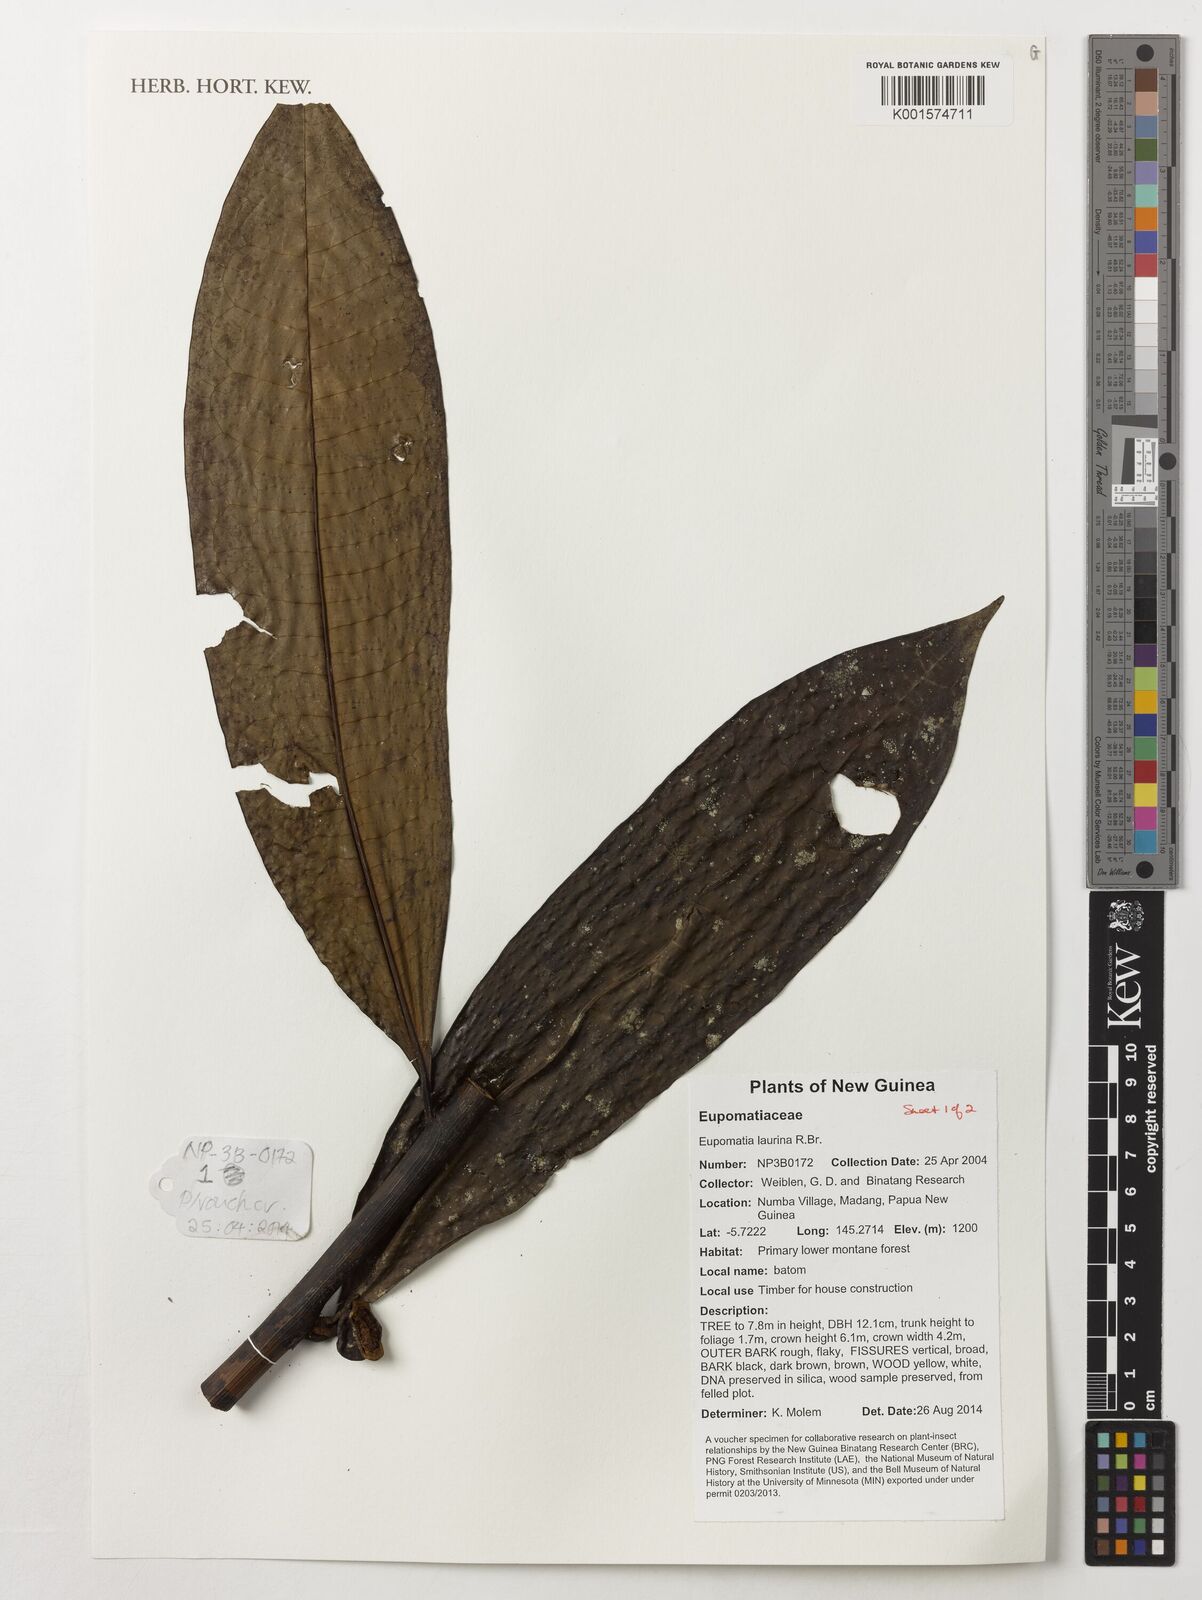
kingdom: Plantae
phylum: Tracheophyta
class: Magnoliopsida
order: Magnoliales
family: Eupomatiaceae
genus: Eupomatia
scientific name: Eupomatia laurina
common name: Bolwarra
